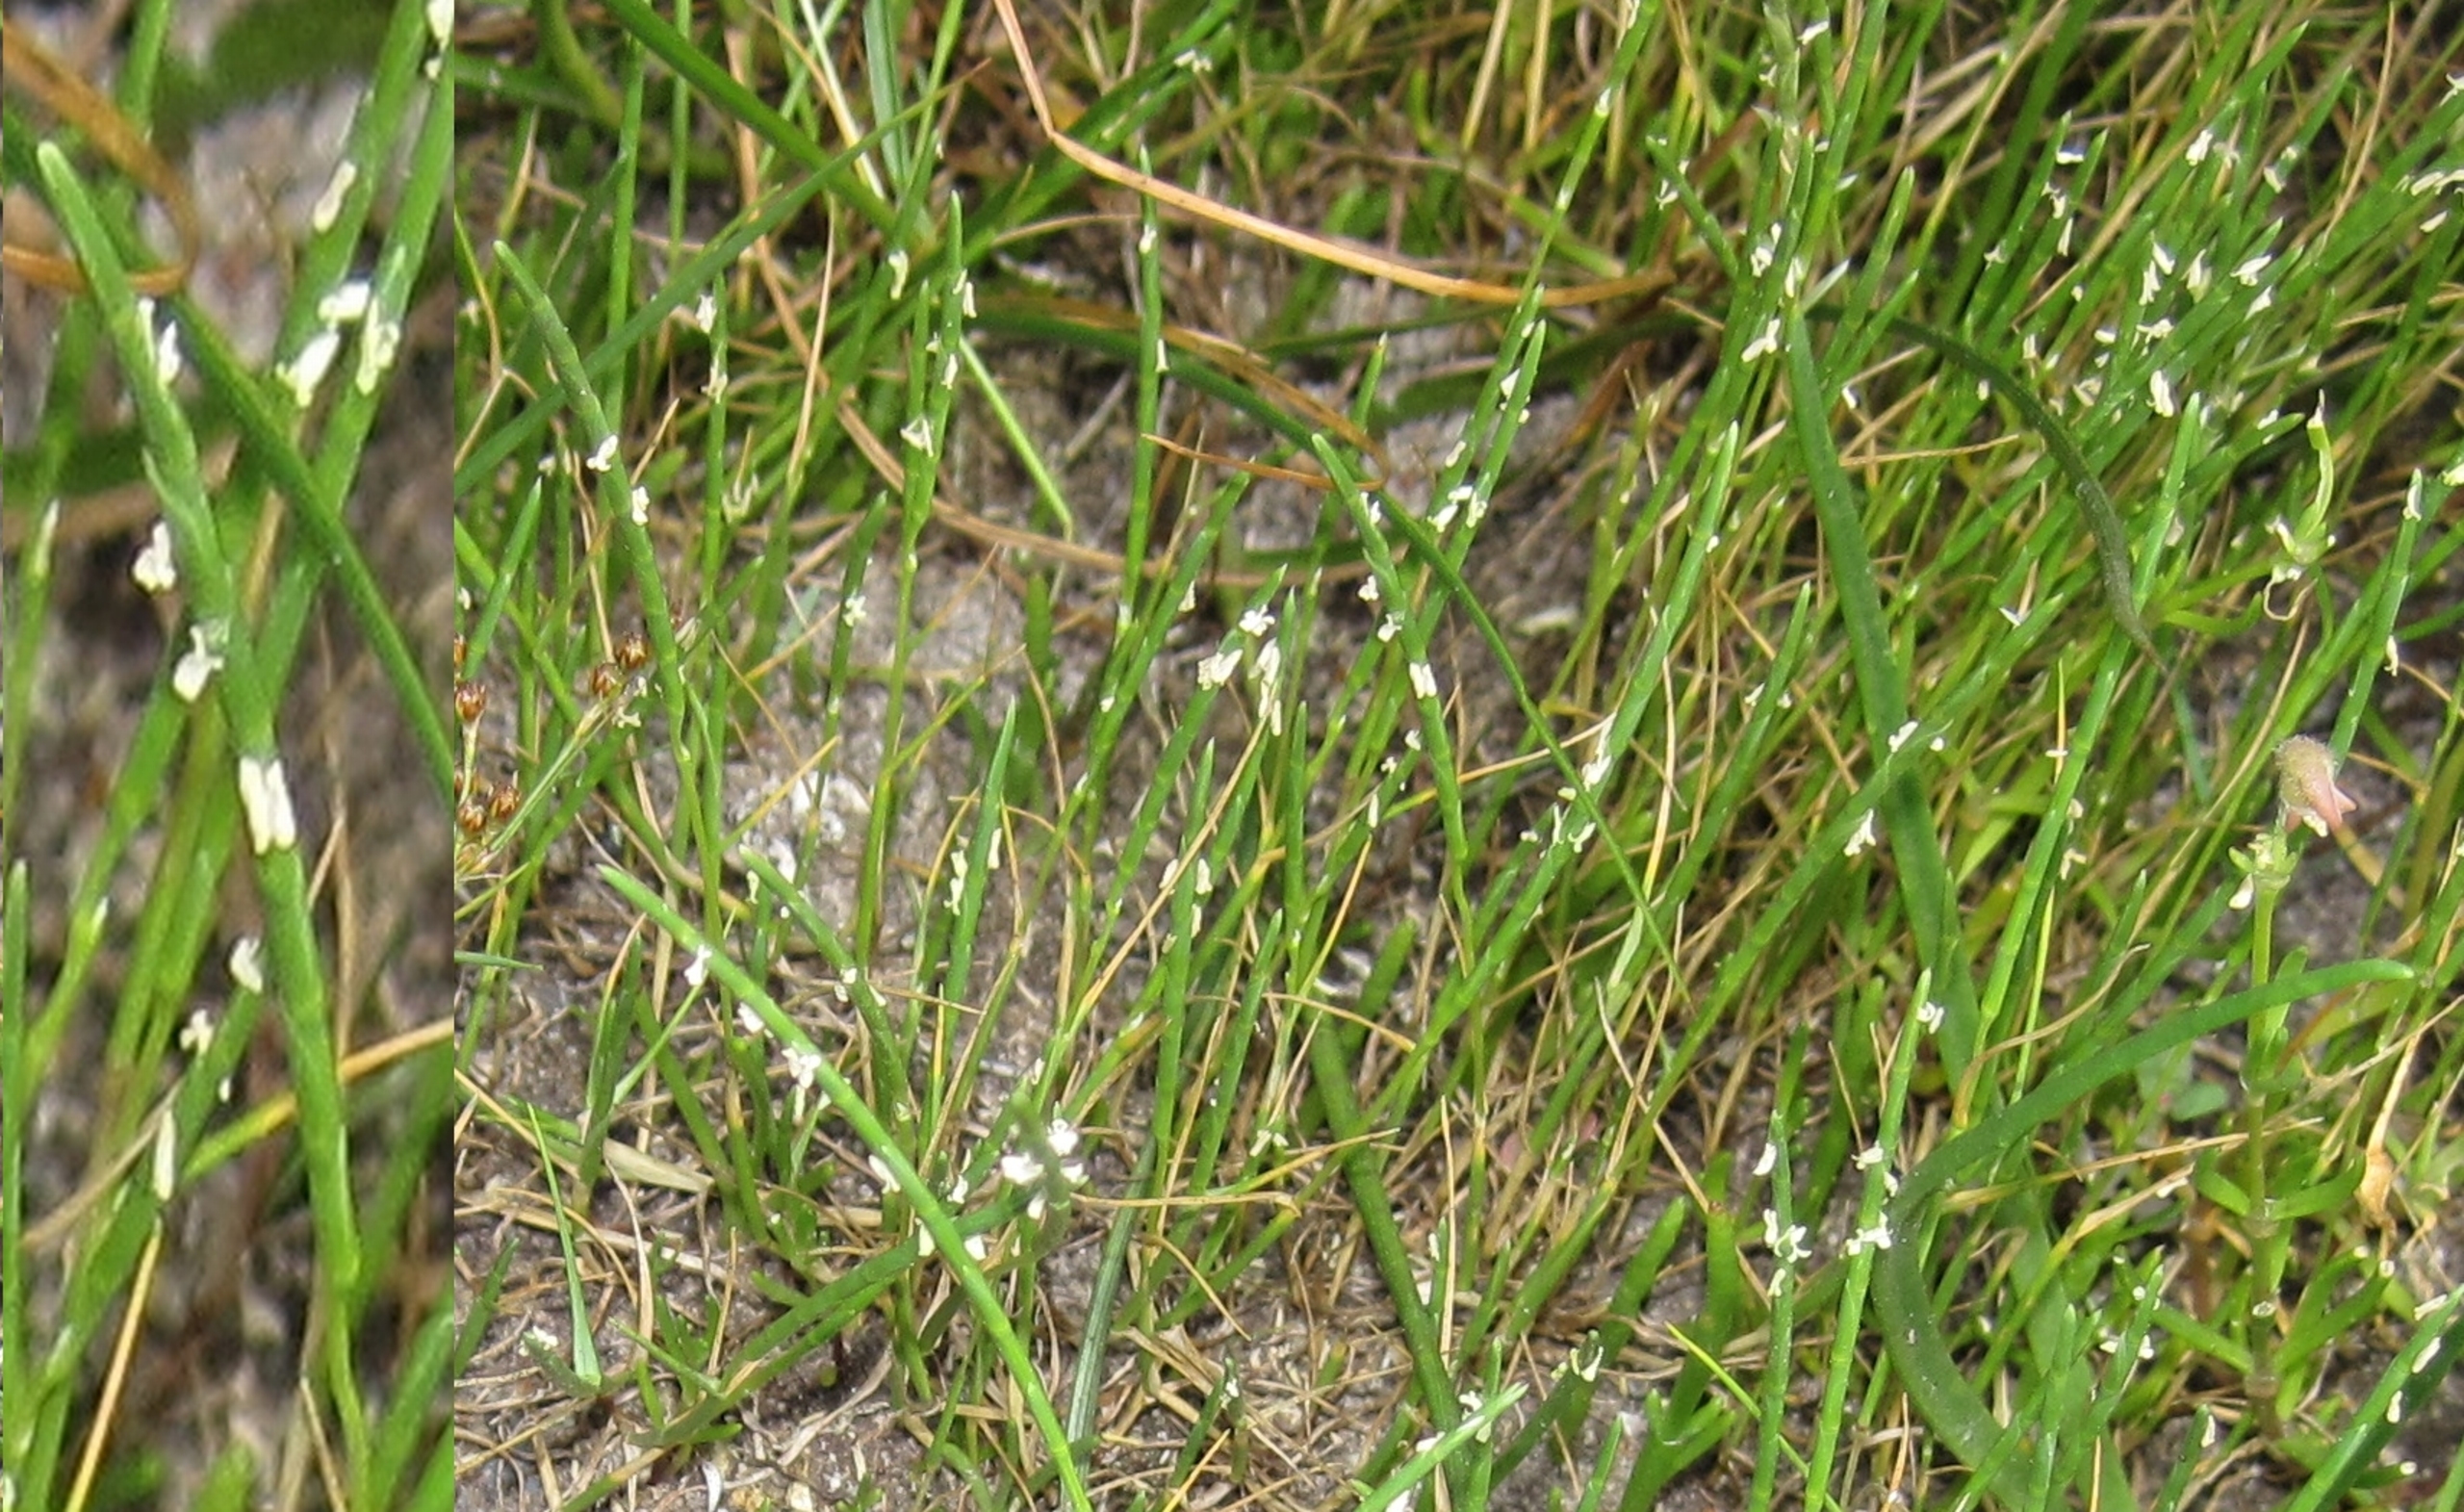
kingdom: Plantae
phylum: Tracheophyta
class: Liliopsida
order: Poales
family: Poaceae
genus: Parapholis
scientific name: Parapholis strigosa
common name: Spidshale
